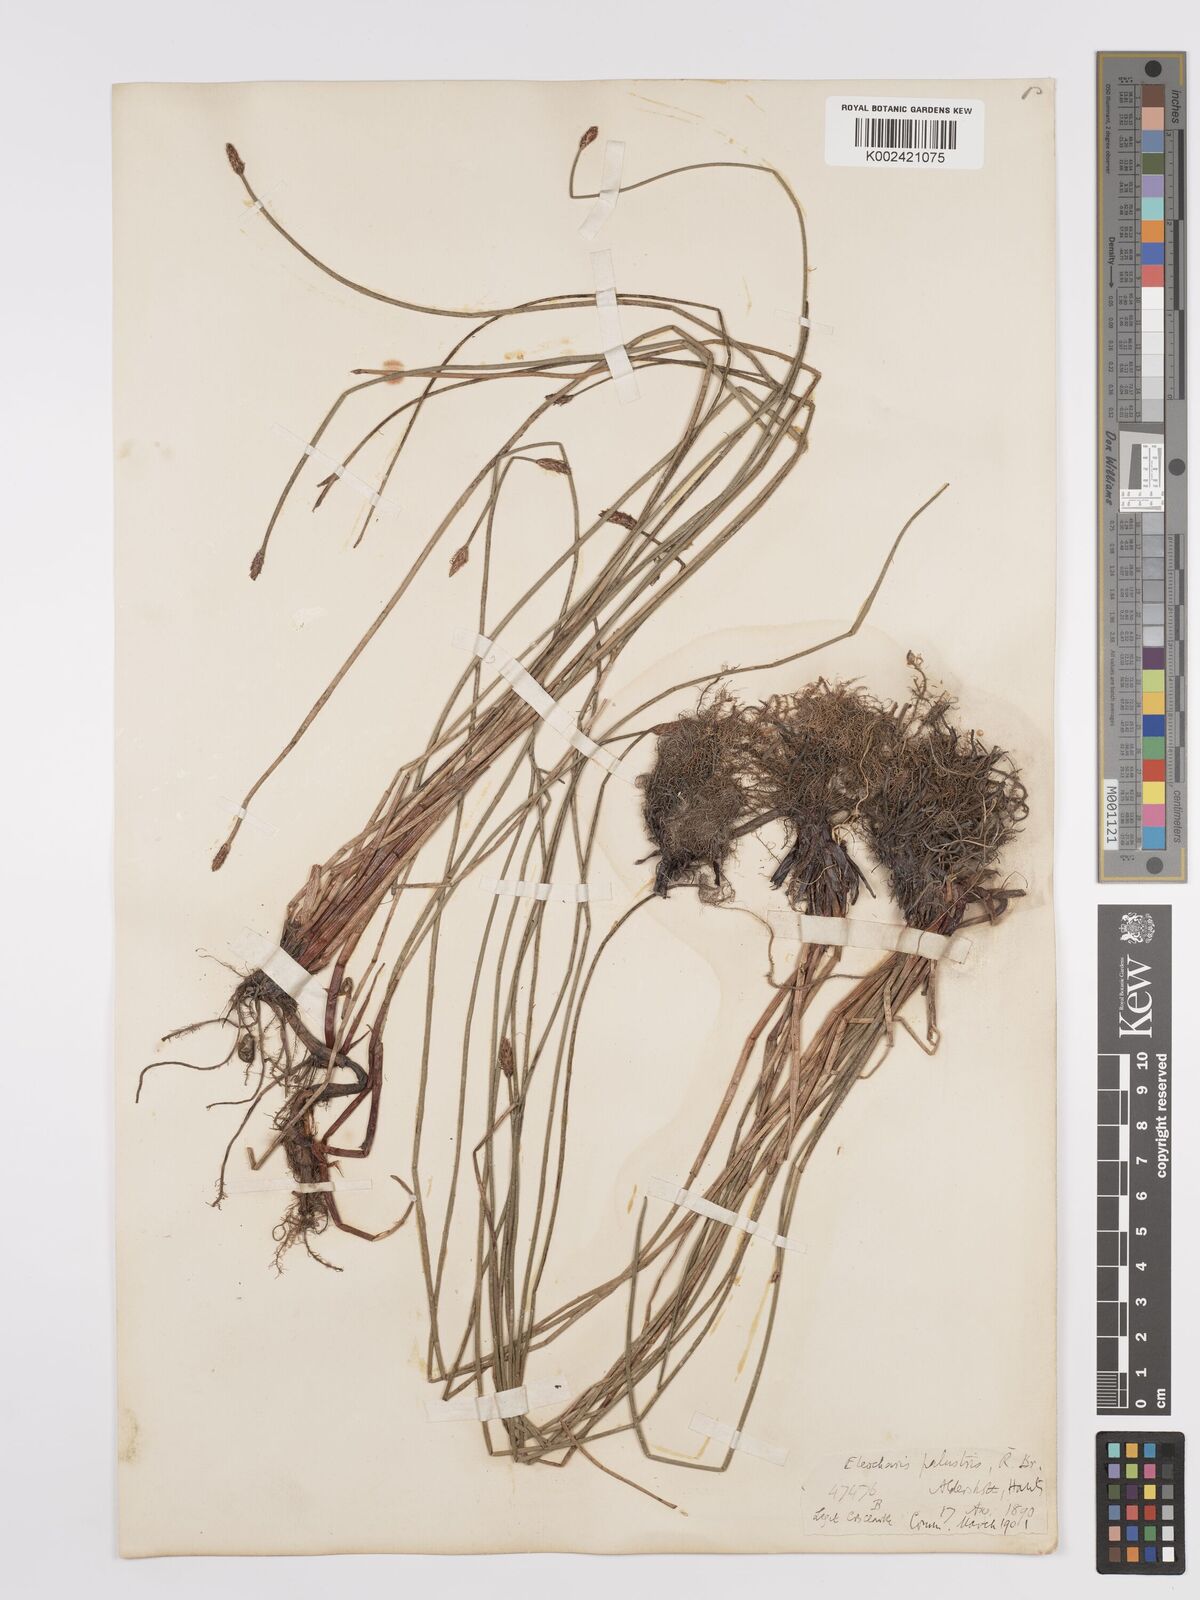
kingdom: Plantae
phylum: Tracheophyta
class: Liliopsida
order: Poales
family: Cyperaceae
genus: Eleocharis
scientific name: Eleocharis palustris
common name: Common spike-rush
